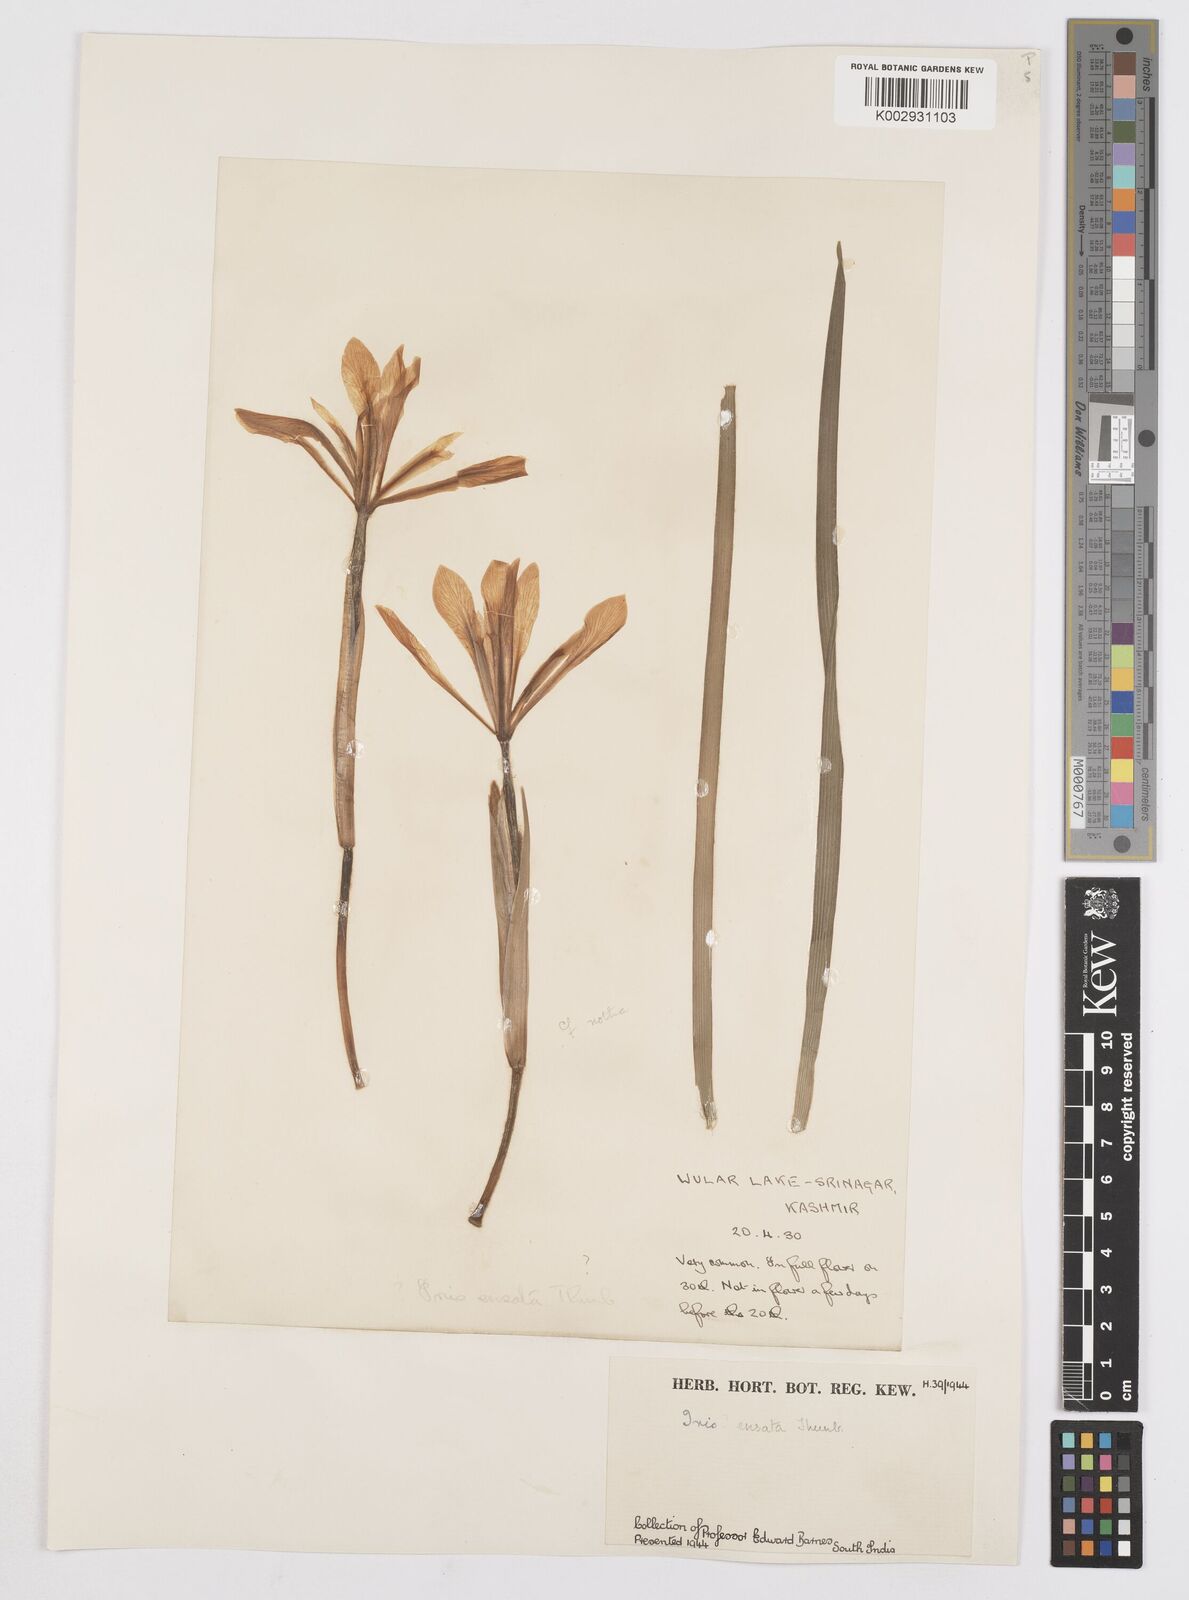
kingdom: Plantae
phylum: Tracheophyta
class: Liliopsida
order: Asparagales
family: Iridaceae
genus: Iris
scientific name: Iris ensata
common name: Beaked iris
